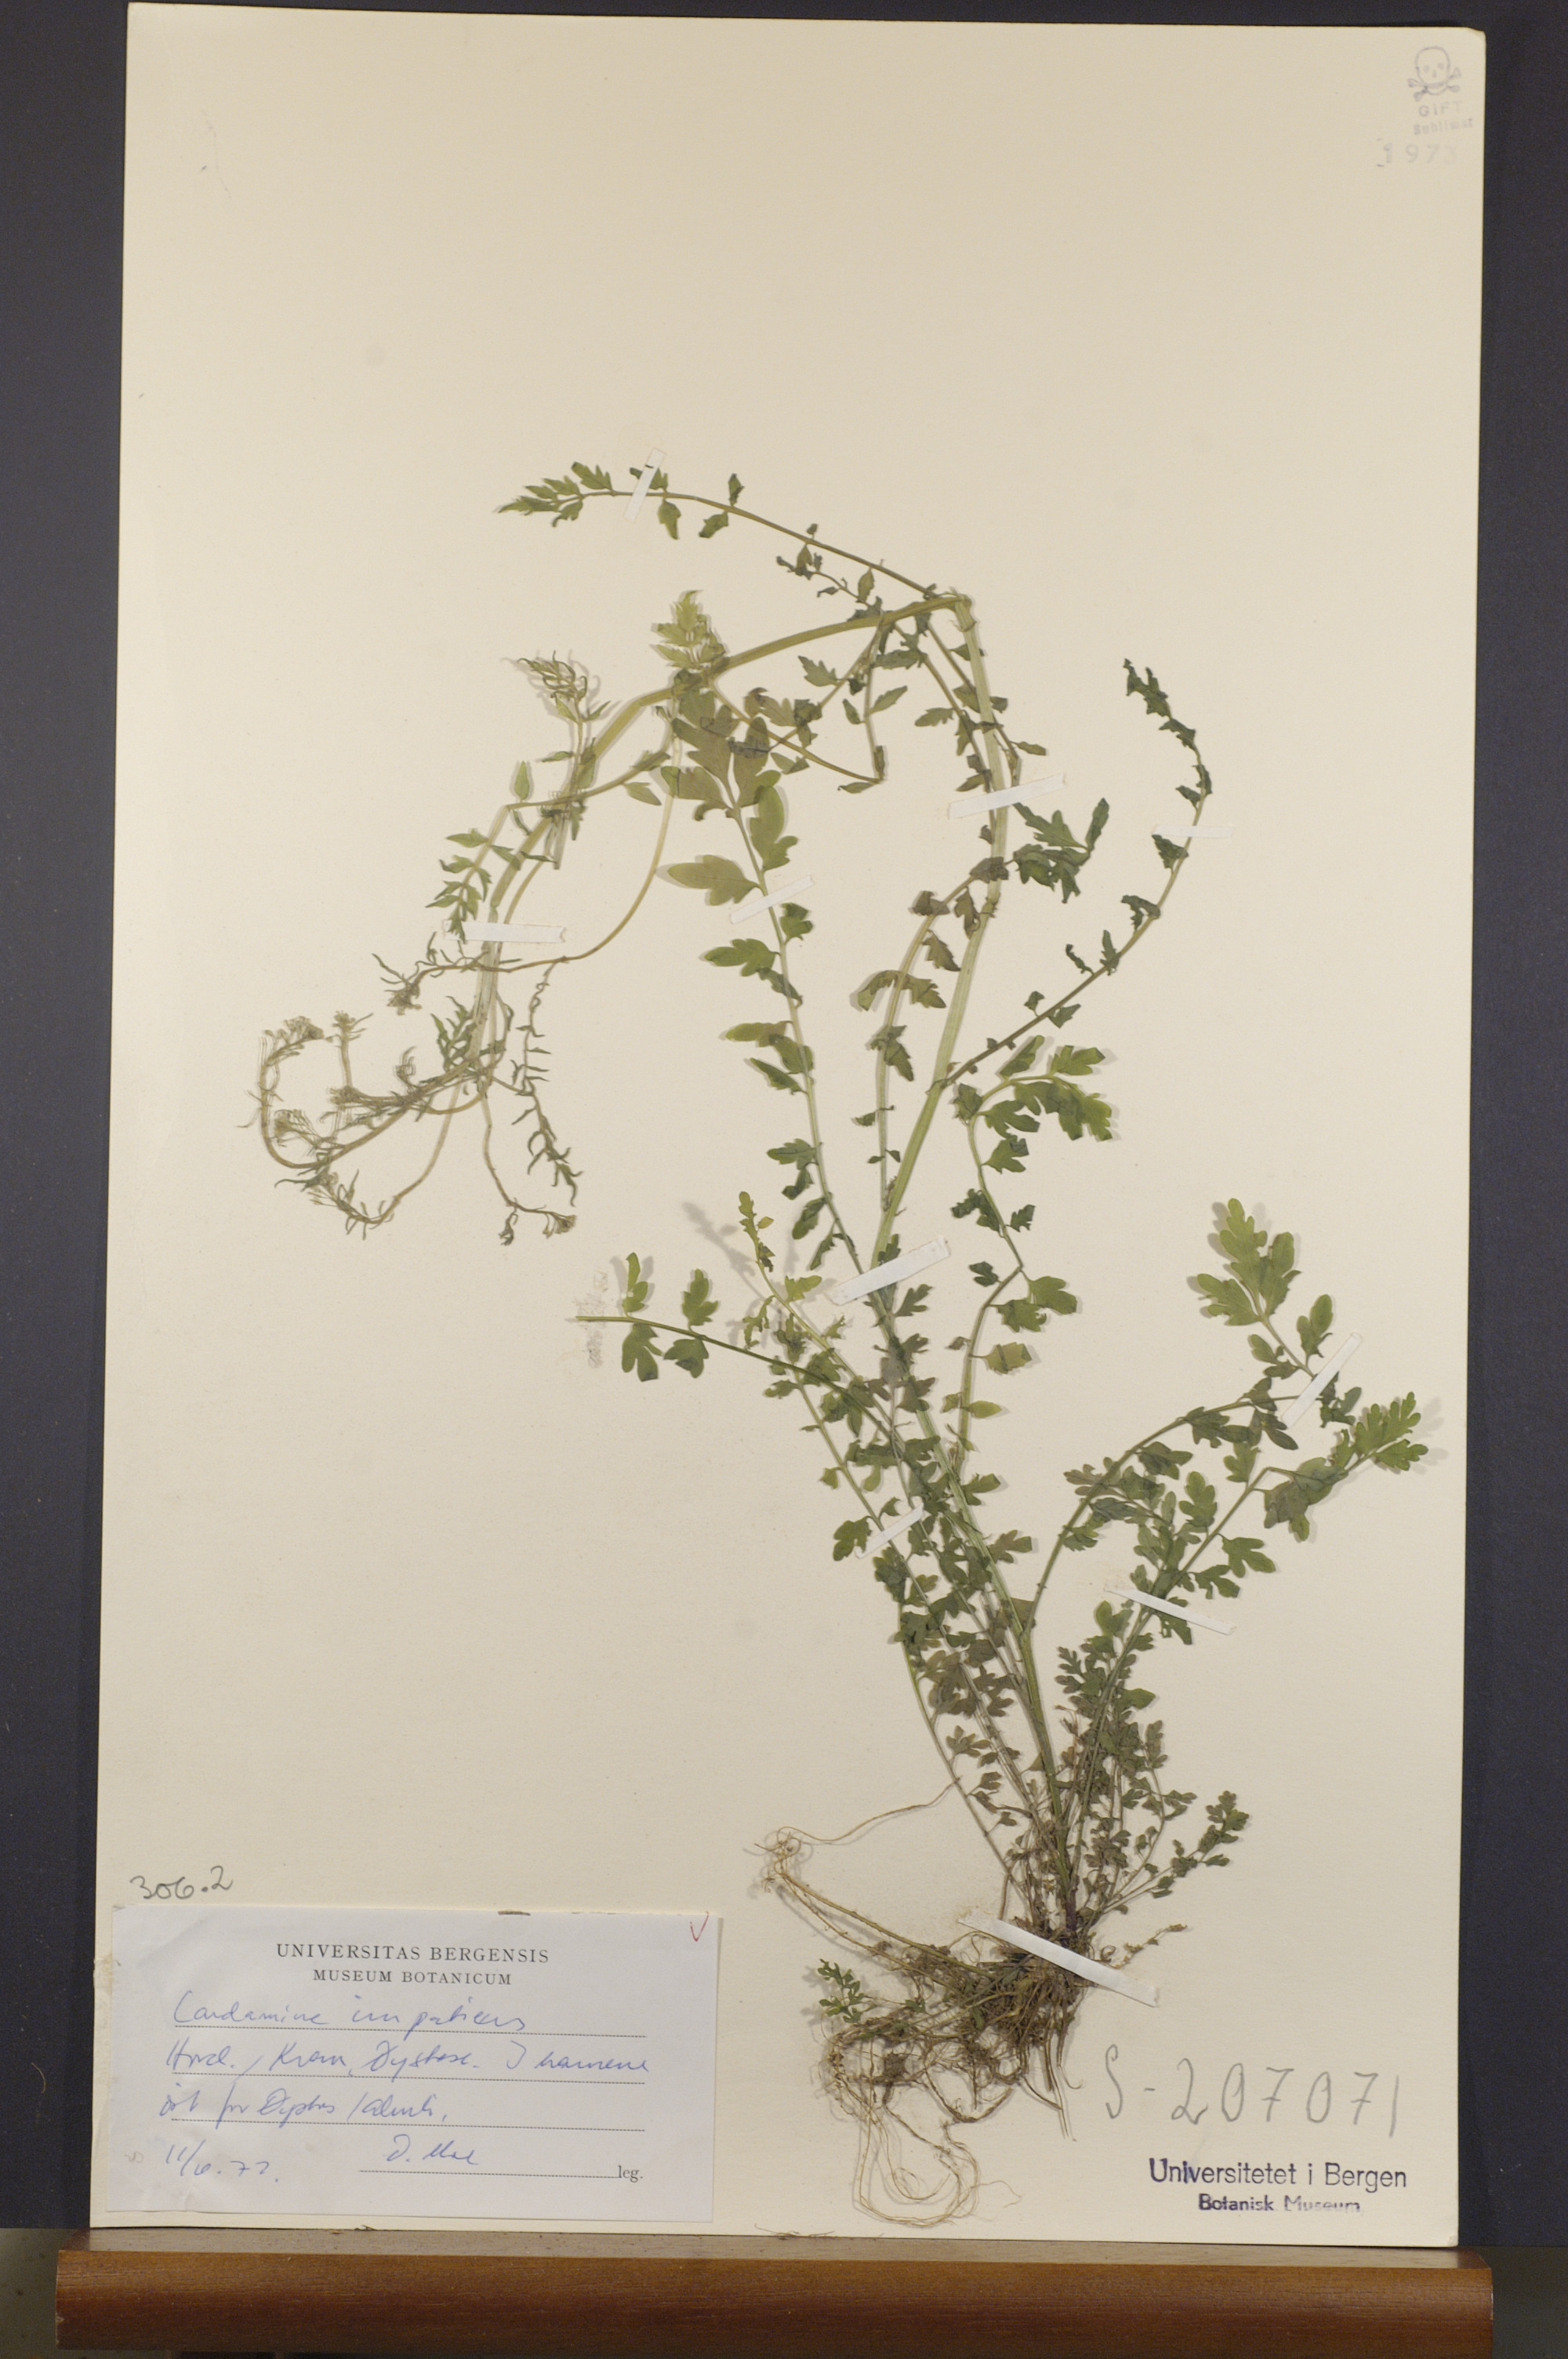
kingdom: Plantae
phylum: Tracheophyta
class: Magnoliopsida
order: Brassicales
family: Brassicaceae
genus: Cardamine
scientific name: Cardamine impatiens
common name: Narrow-leaved bitter-cress
